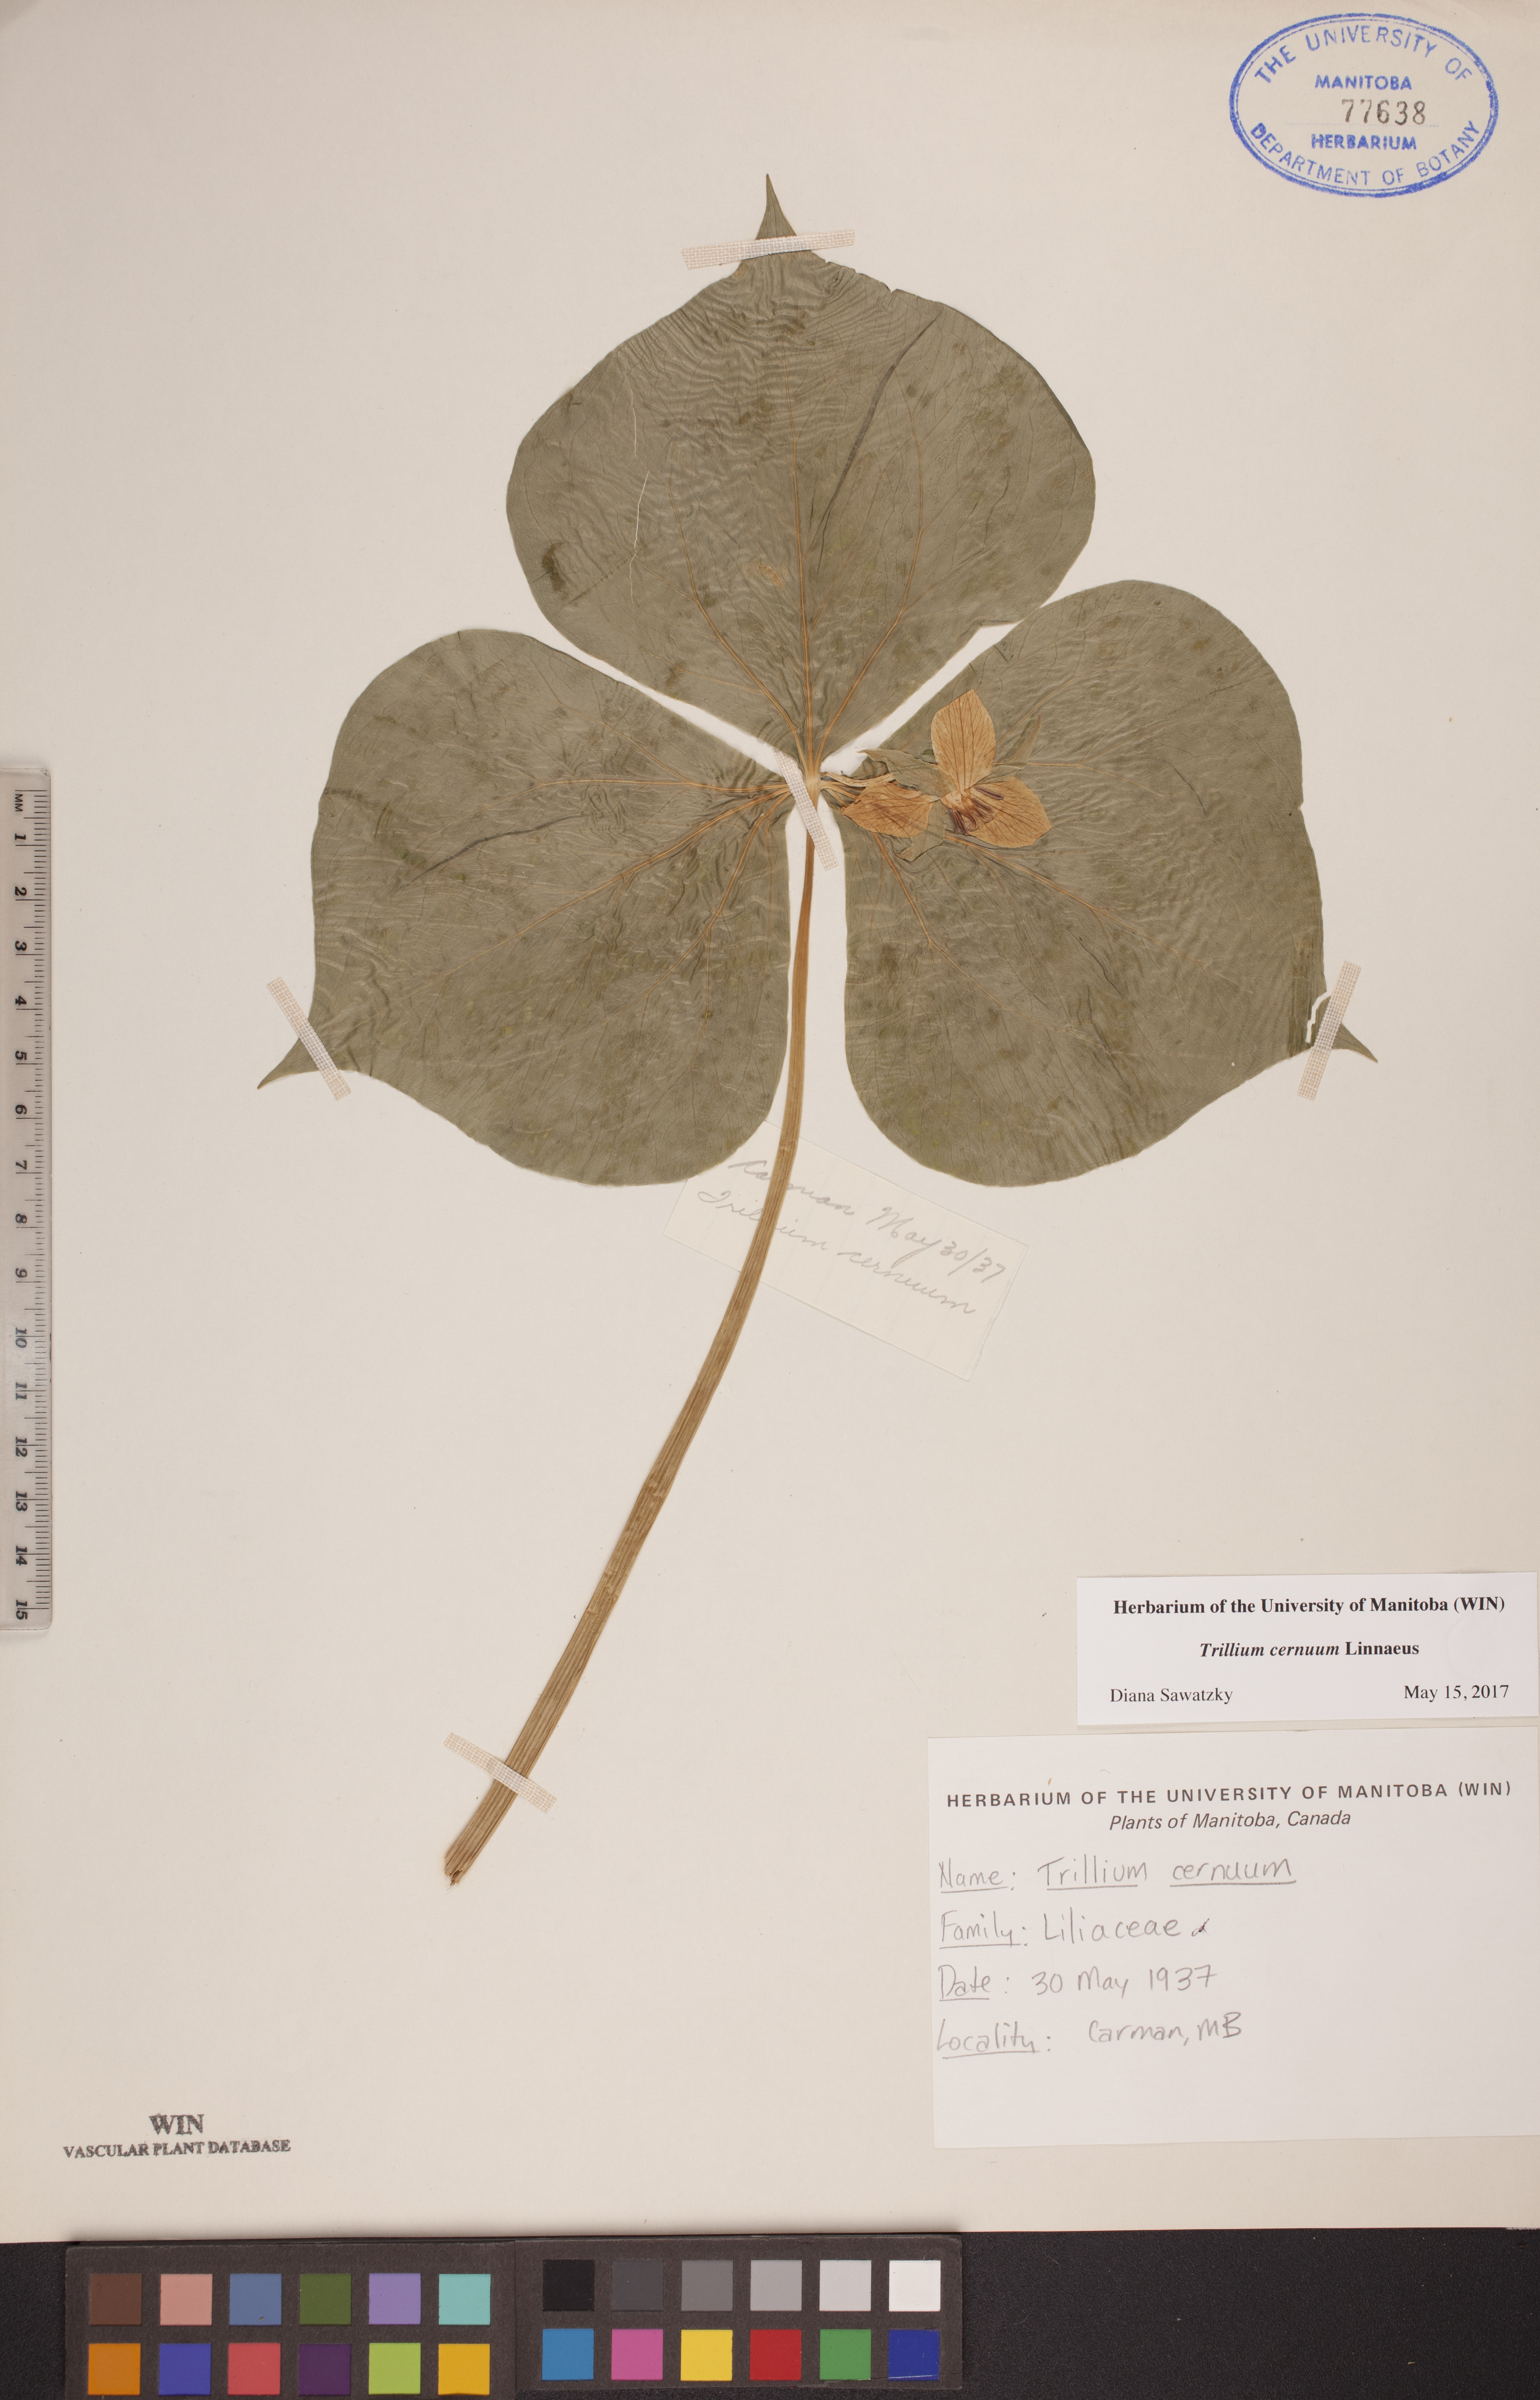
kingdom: Plantae
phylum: Tracheophyta
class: Liliopsida
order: Liliales
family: Melanthiaceae
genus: Trillium
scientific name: Trillium cernuum
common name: Nodding trillium
